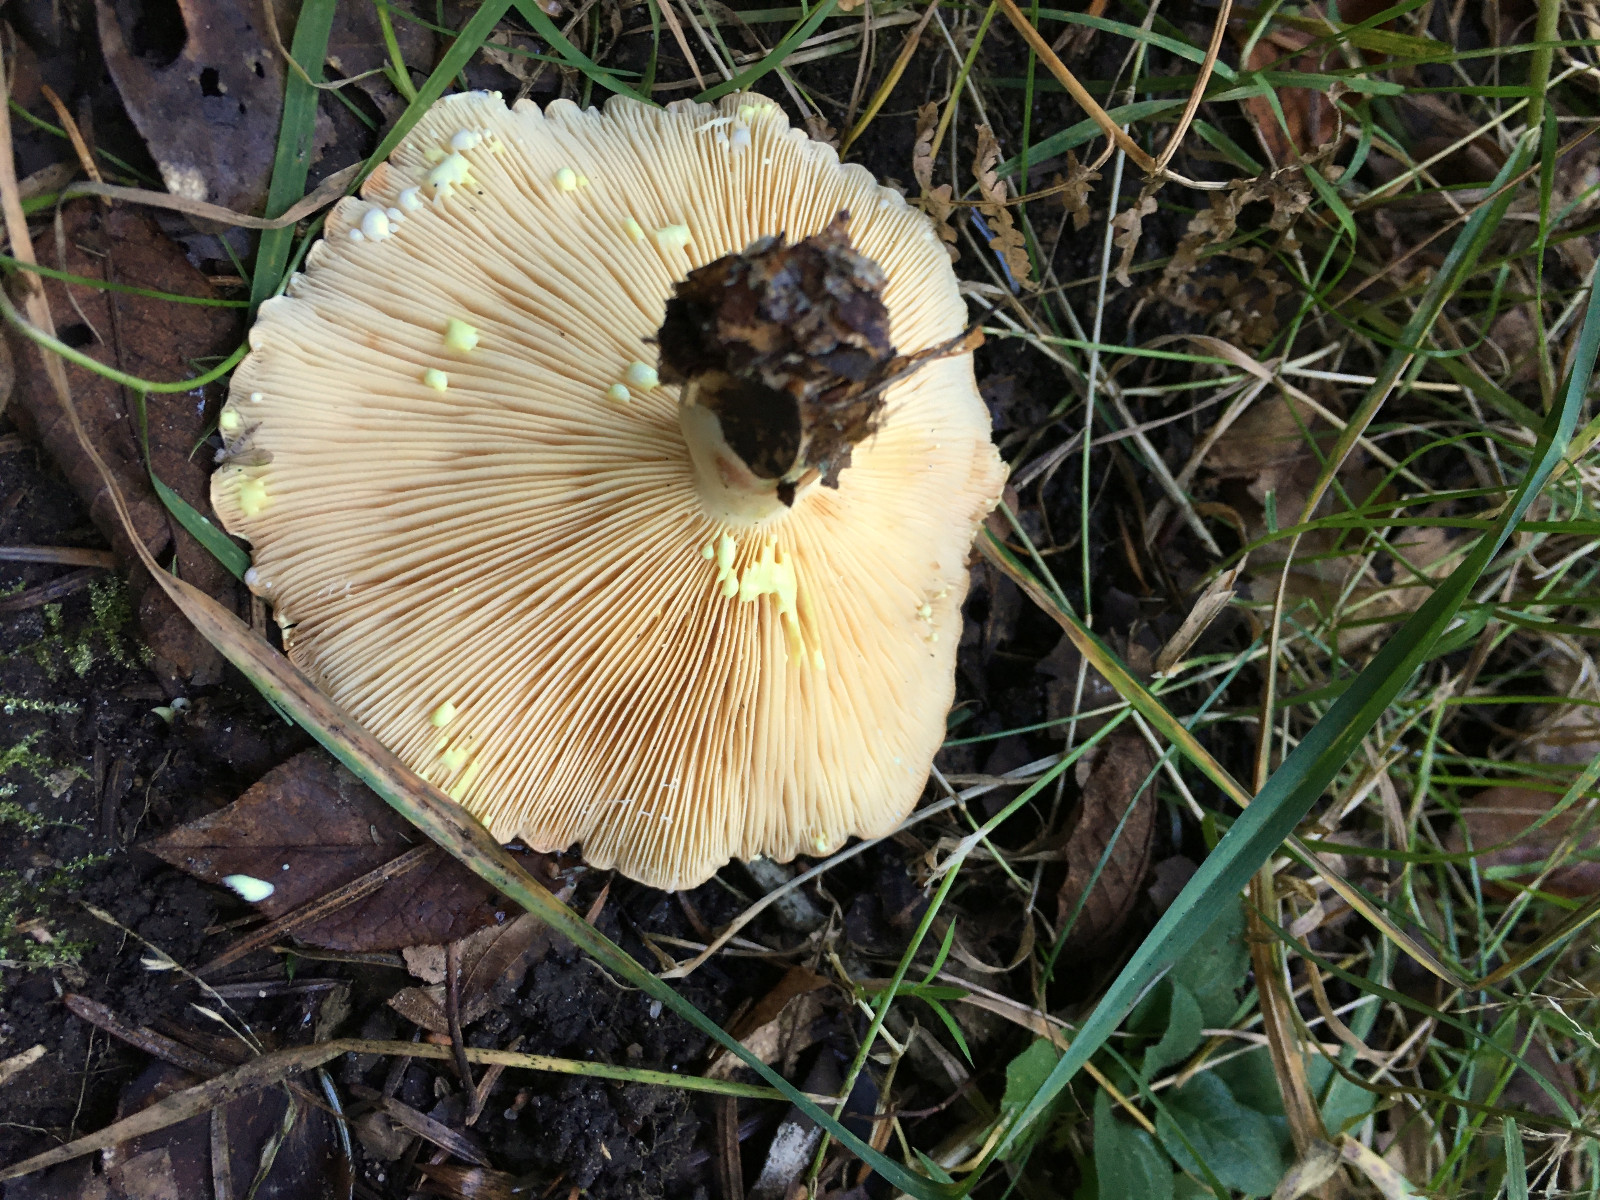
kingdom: Fungi
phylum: Basidiomycota
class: Agaricomycetes
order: Russulales
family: Russulaceae
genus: Lactarius
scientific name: Lactarius chrysorrheus
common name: svovlmælket mælkehat
